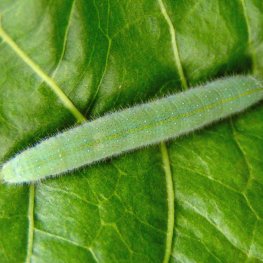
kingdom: Animalia
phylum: Arthropoda
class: Insecta
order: Lepidoptera
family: Pieridae
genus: Pieris
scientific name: Pieris rapae
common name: Cabbage White
